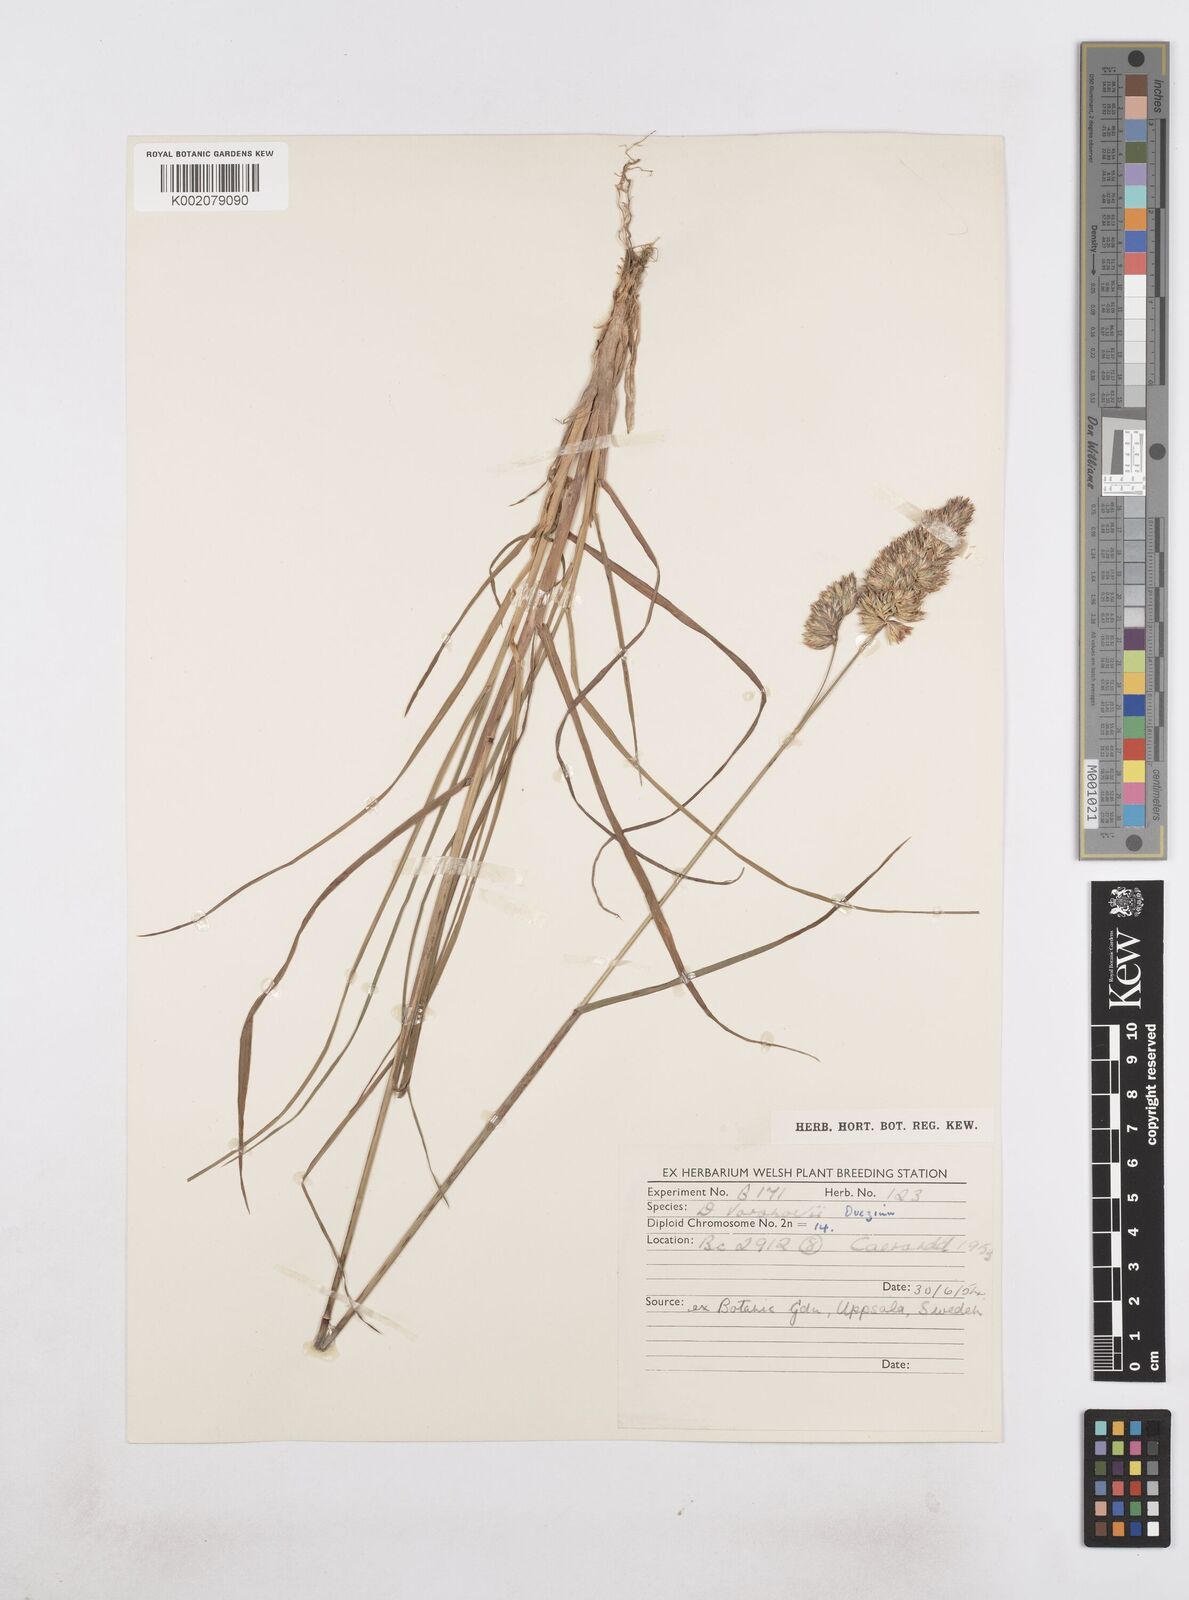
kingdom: Plantae
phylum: Tracheophyta
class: Liliopsida
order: Poales
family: Poaceae
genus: Dactylis
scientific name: Dactylis glomerata
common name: Orchardgrass
